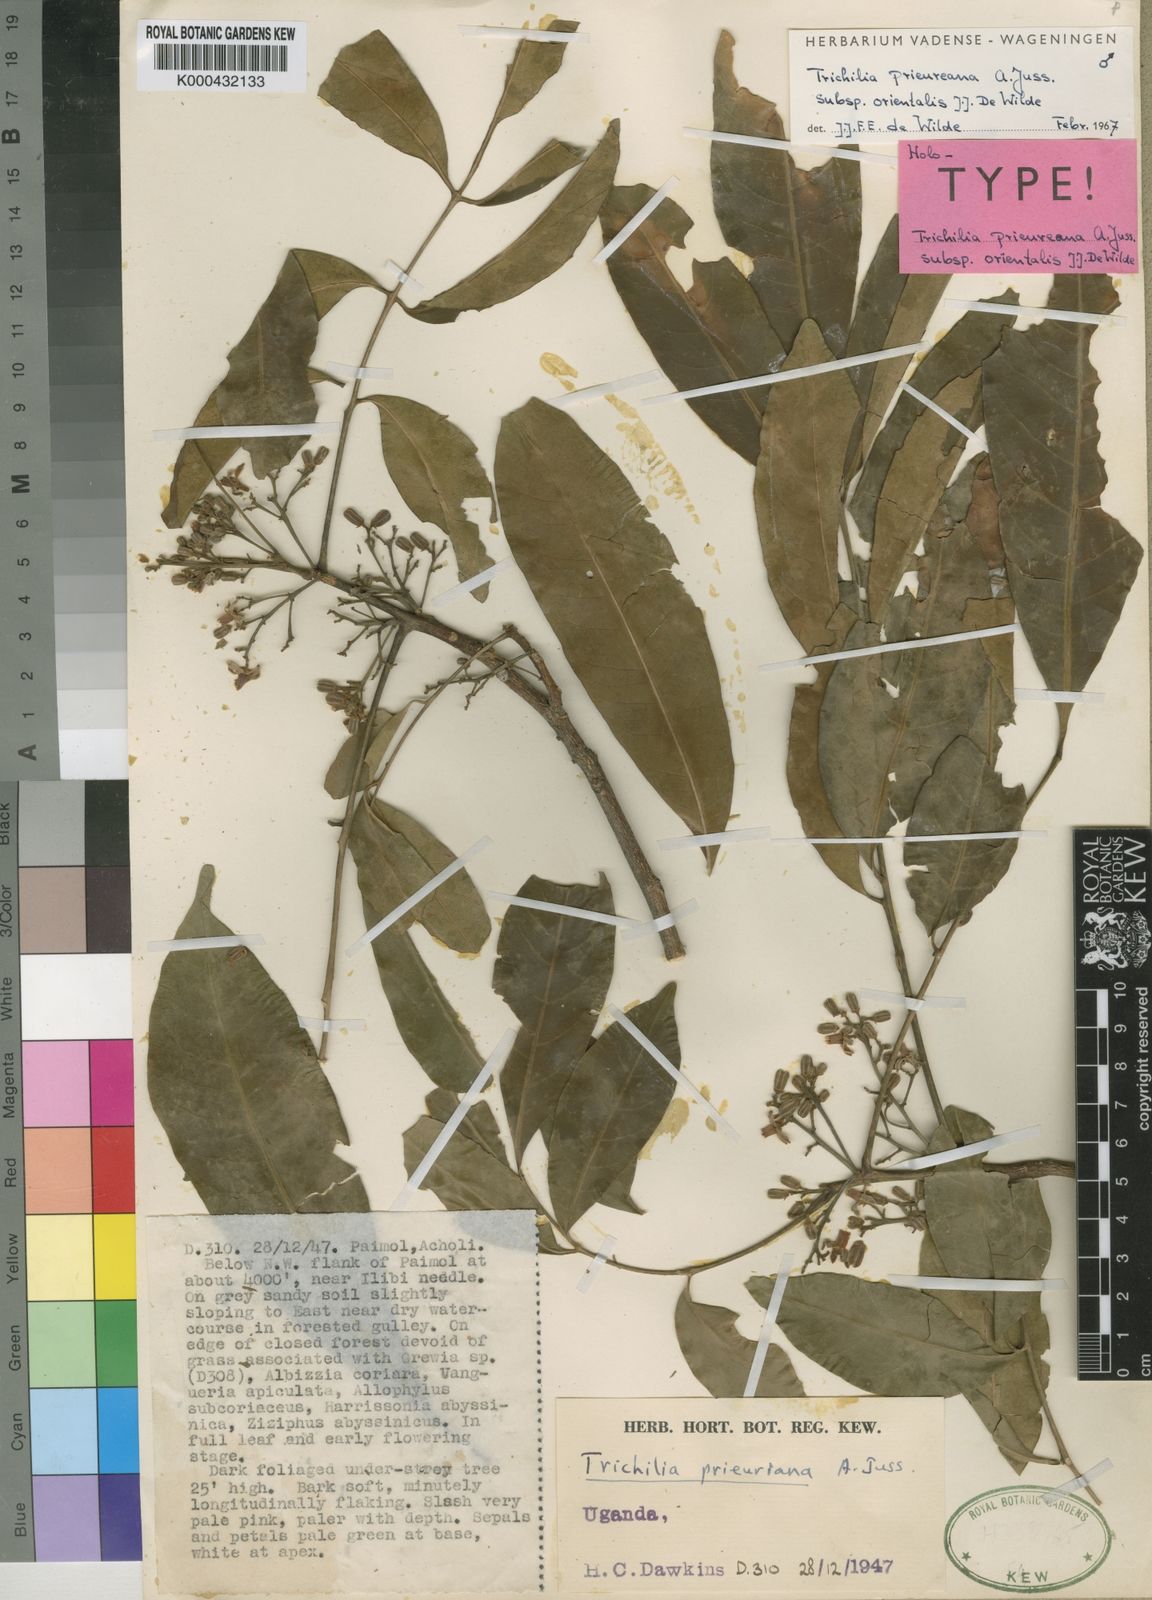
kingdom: Plantae
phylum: Tracheophyta
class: Magnoliopsida
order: Sapindales
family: Meliaceae
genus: Trichilia
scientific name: Trichilia
